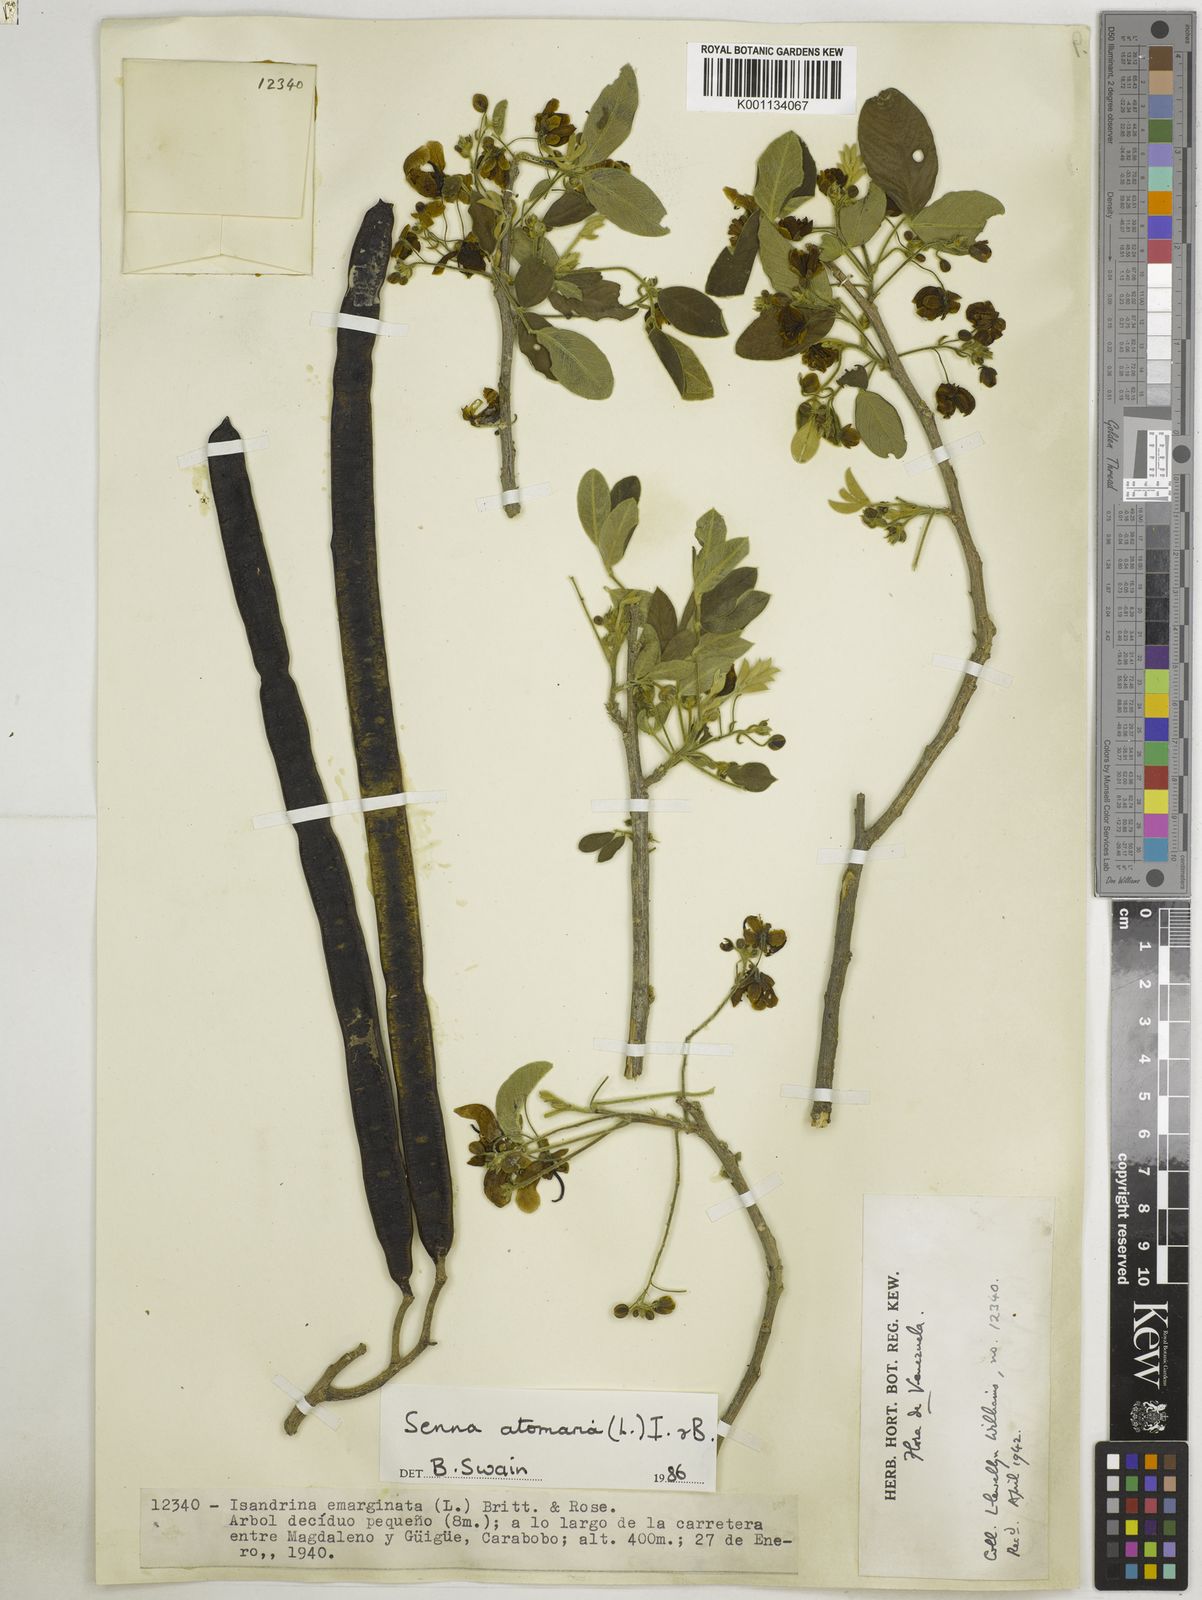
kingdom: Plantae
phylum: Tracheophyta
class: Magnoliopsida
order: Fabales
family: Fabaceae
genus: Senna
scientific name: Senna atomaria
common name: Flor de san jose
